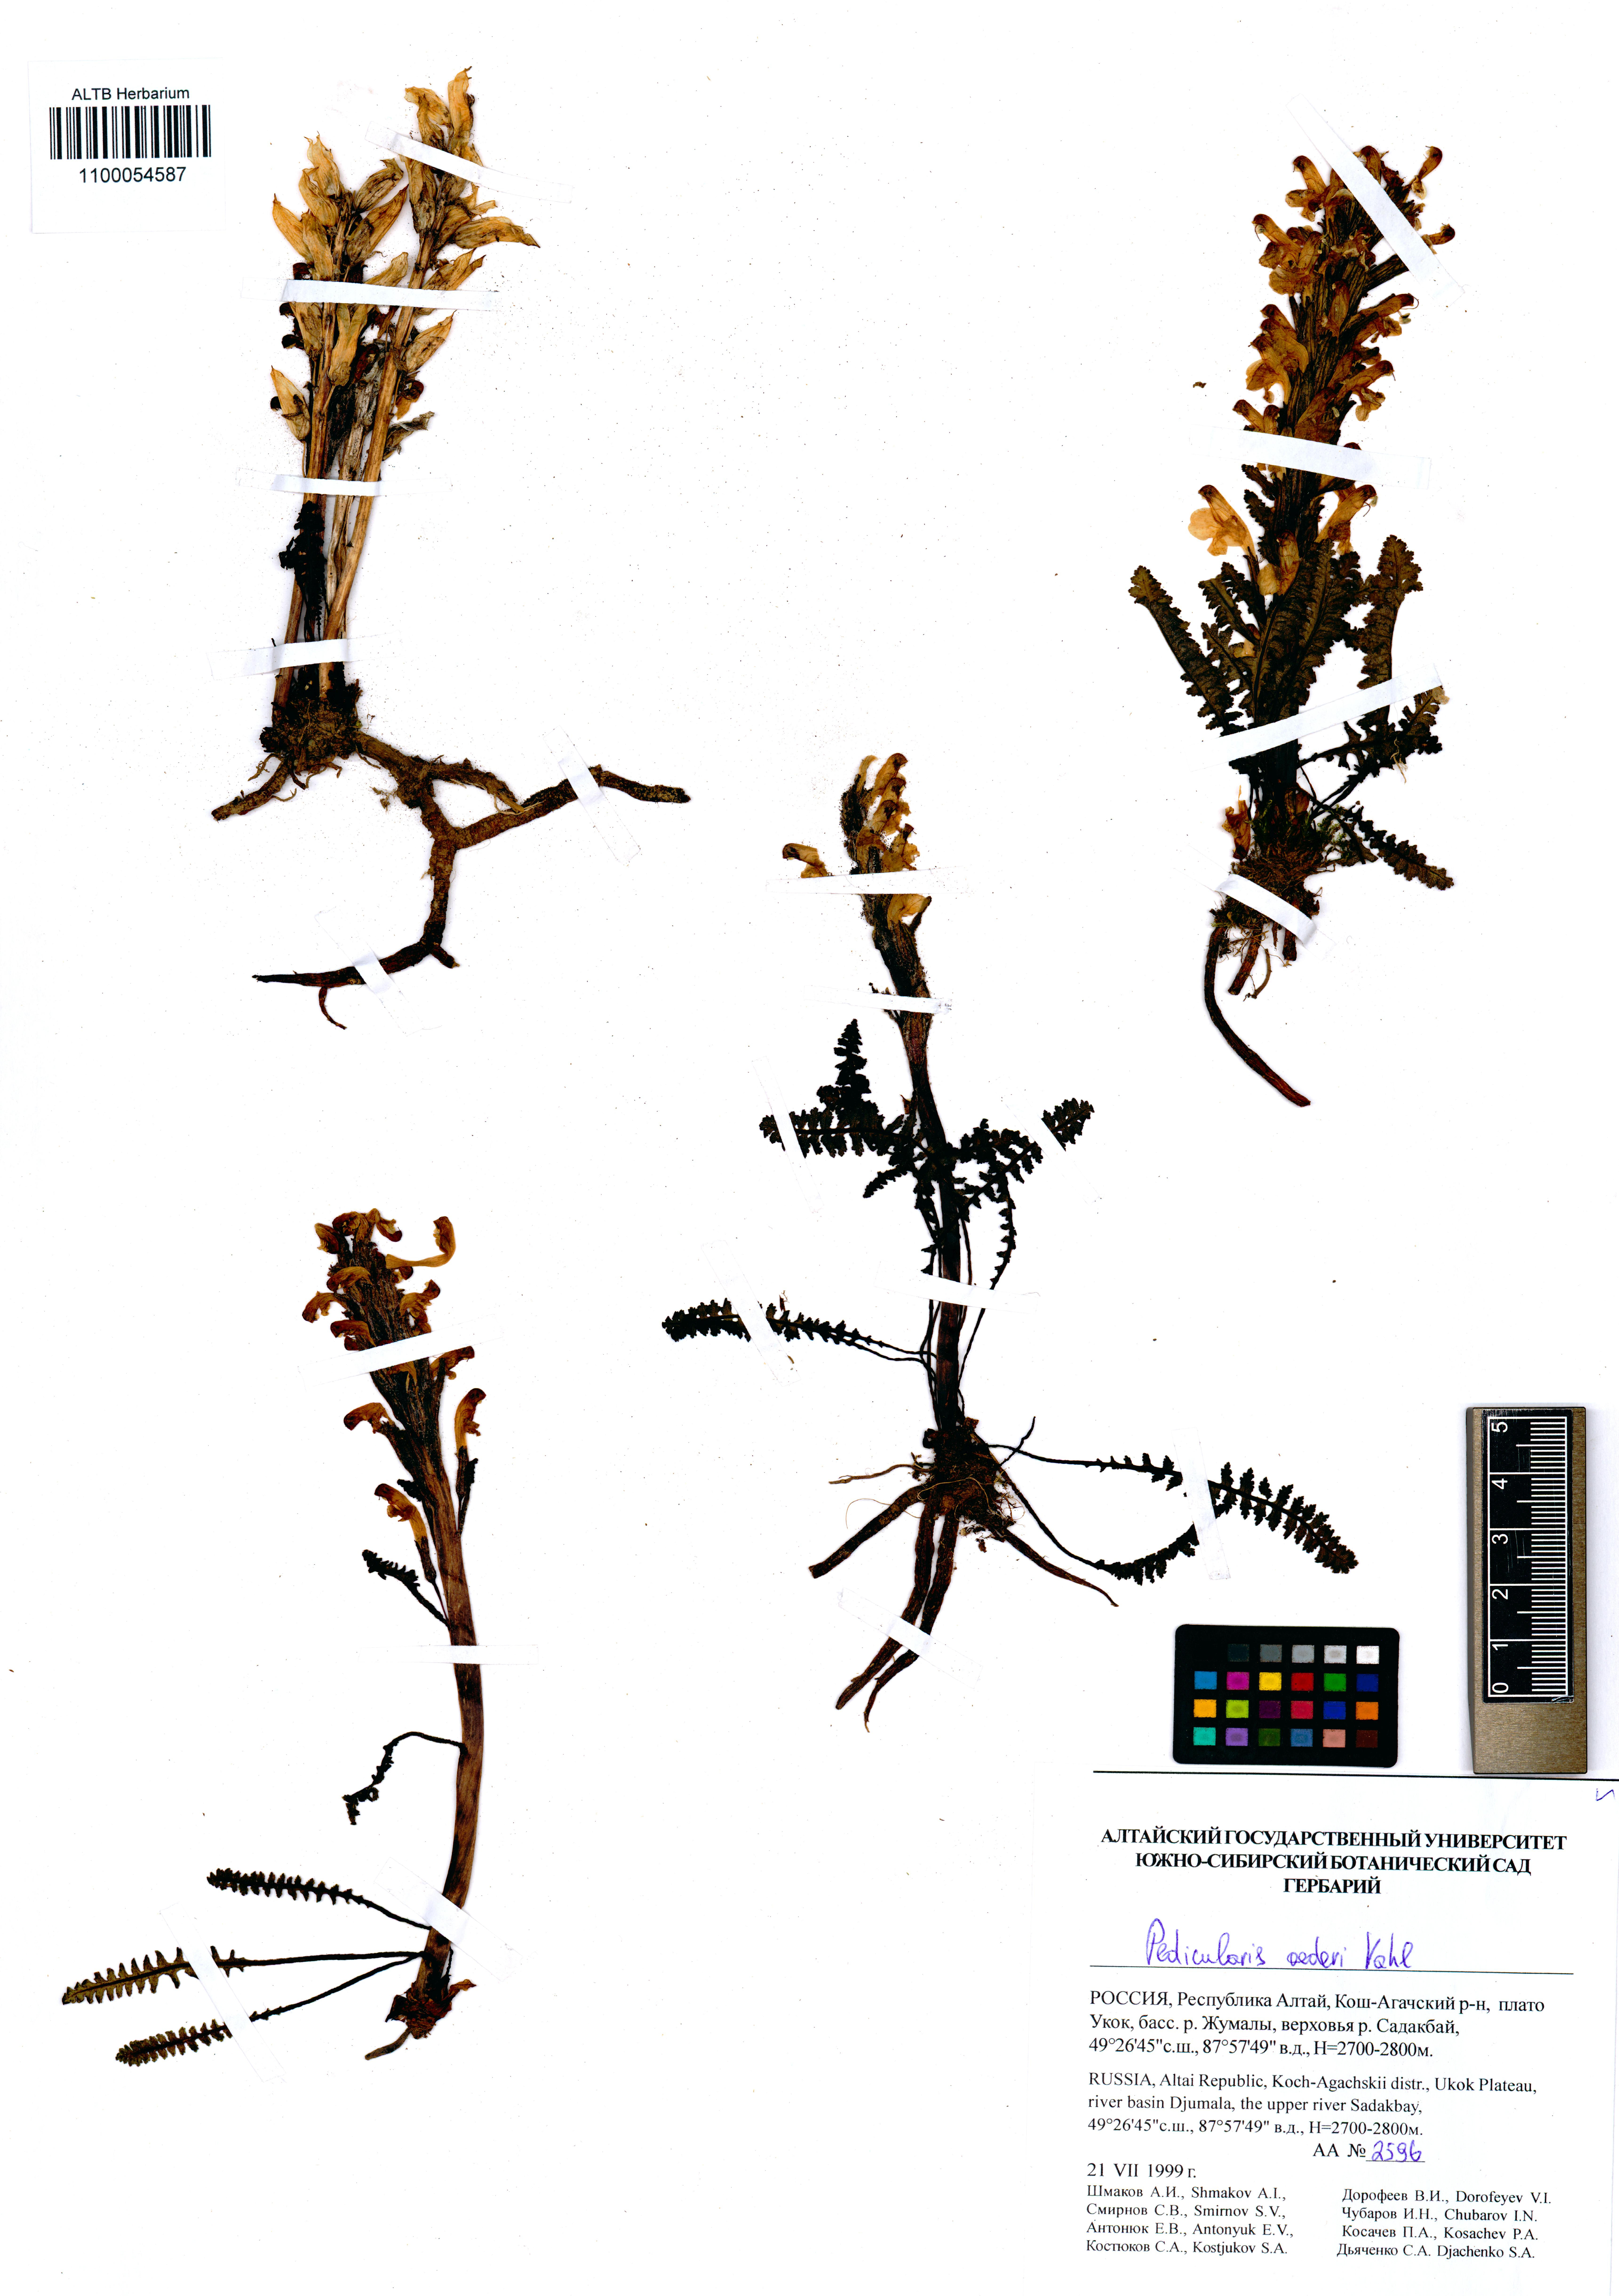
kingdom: Plantae
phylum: Tracheophyta
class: Magnoliopsida
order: Lamiales
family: Orobanchaceae
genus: Pedicularis
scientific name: Pedicularis oederi
